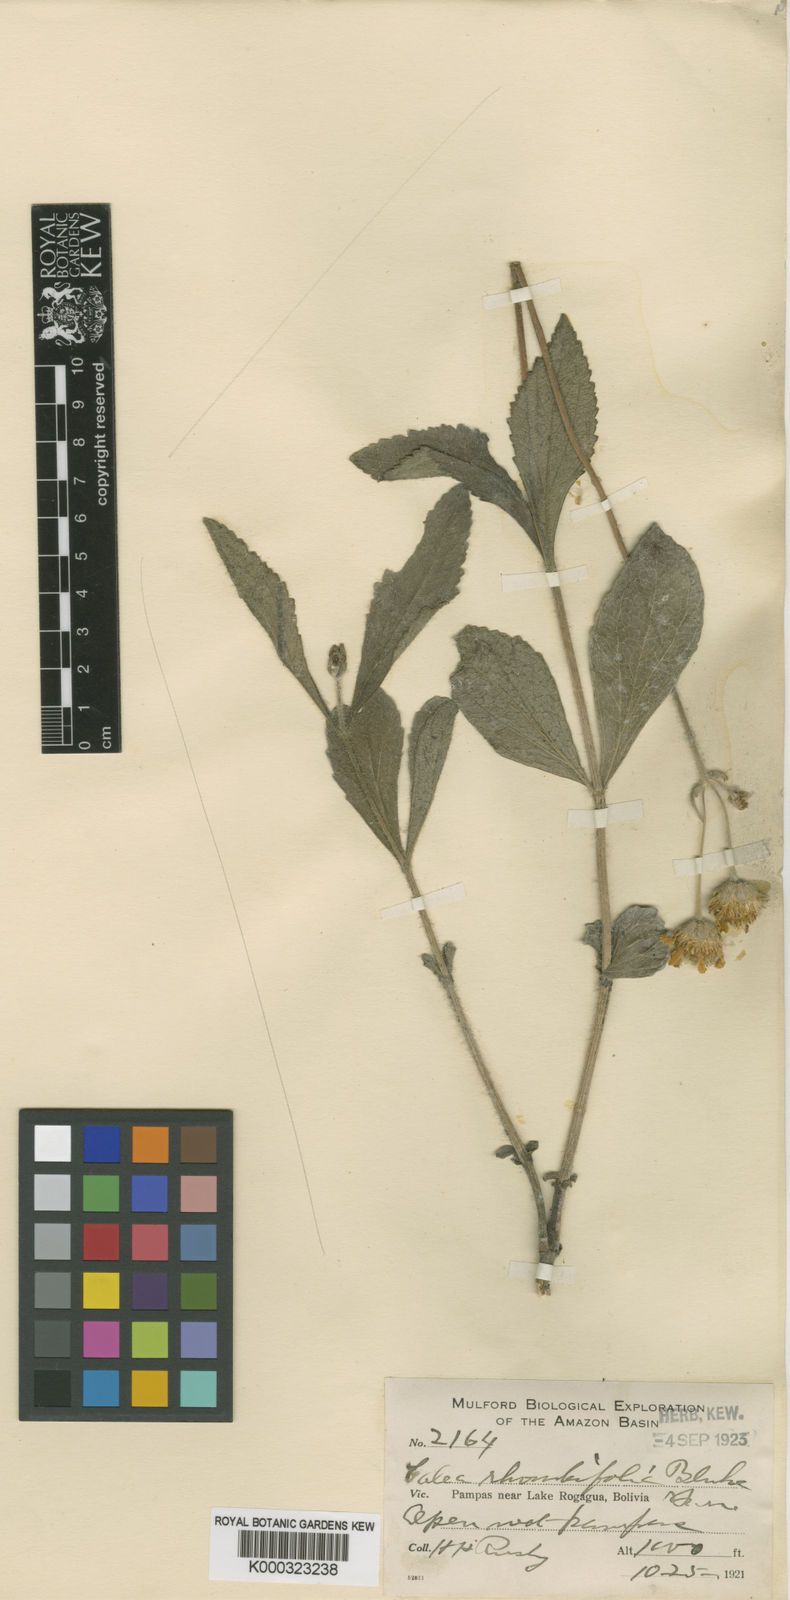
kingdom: Plantae
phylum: Tracheophyta
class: Magnoliopsida
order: Asterales
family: Asteraceae
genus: Calea
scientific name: Calea rhombifolia
